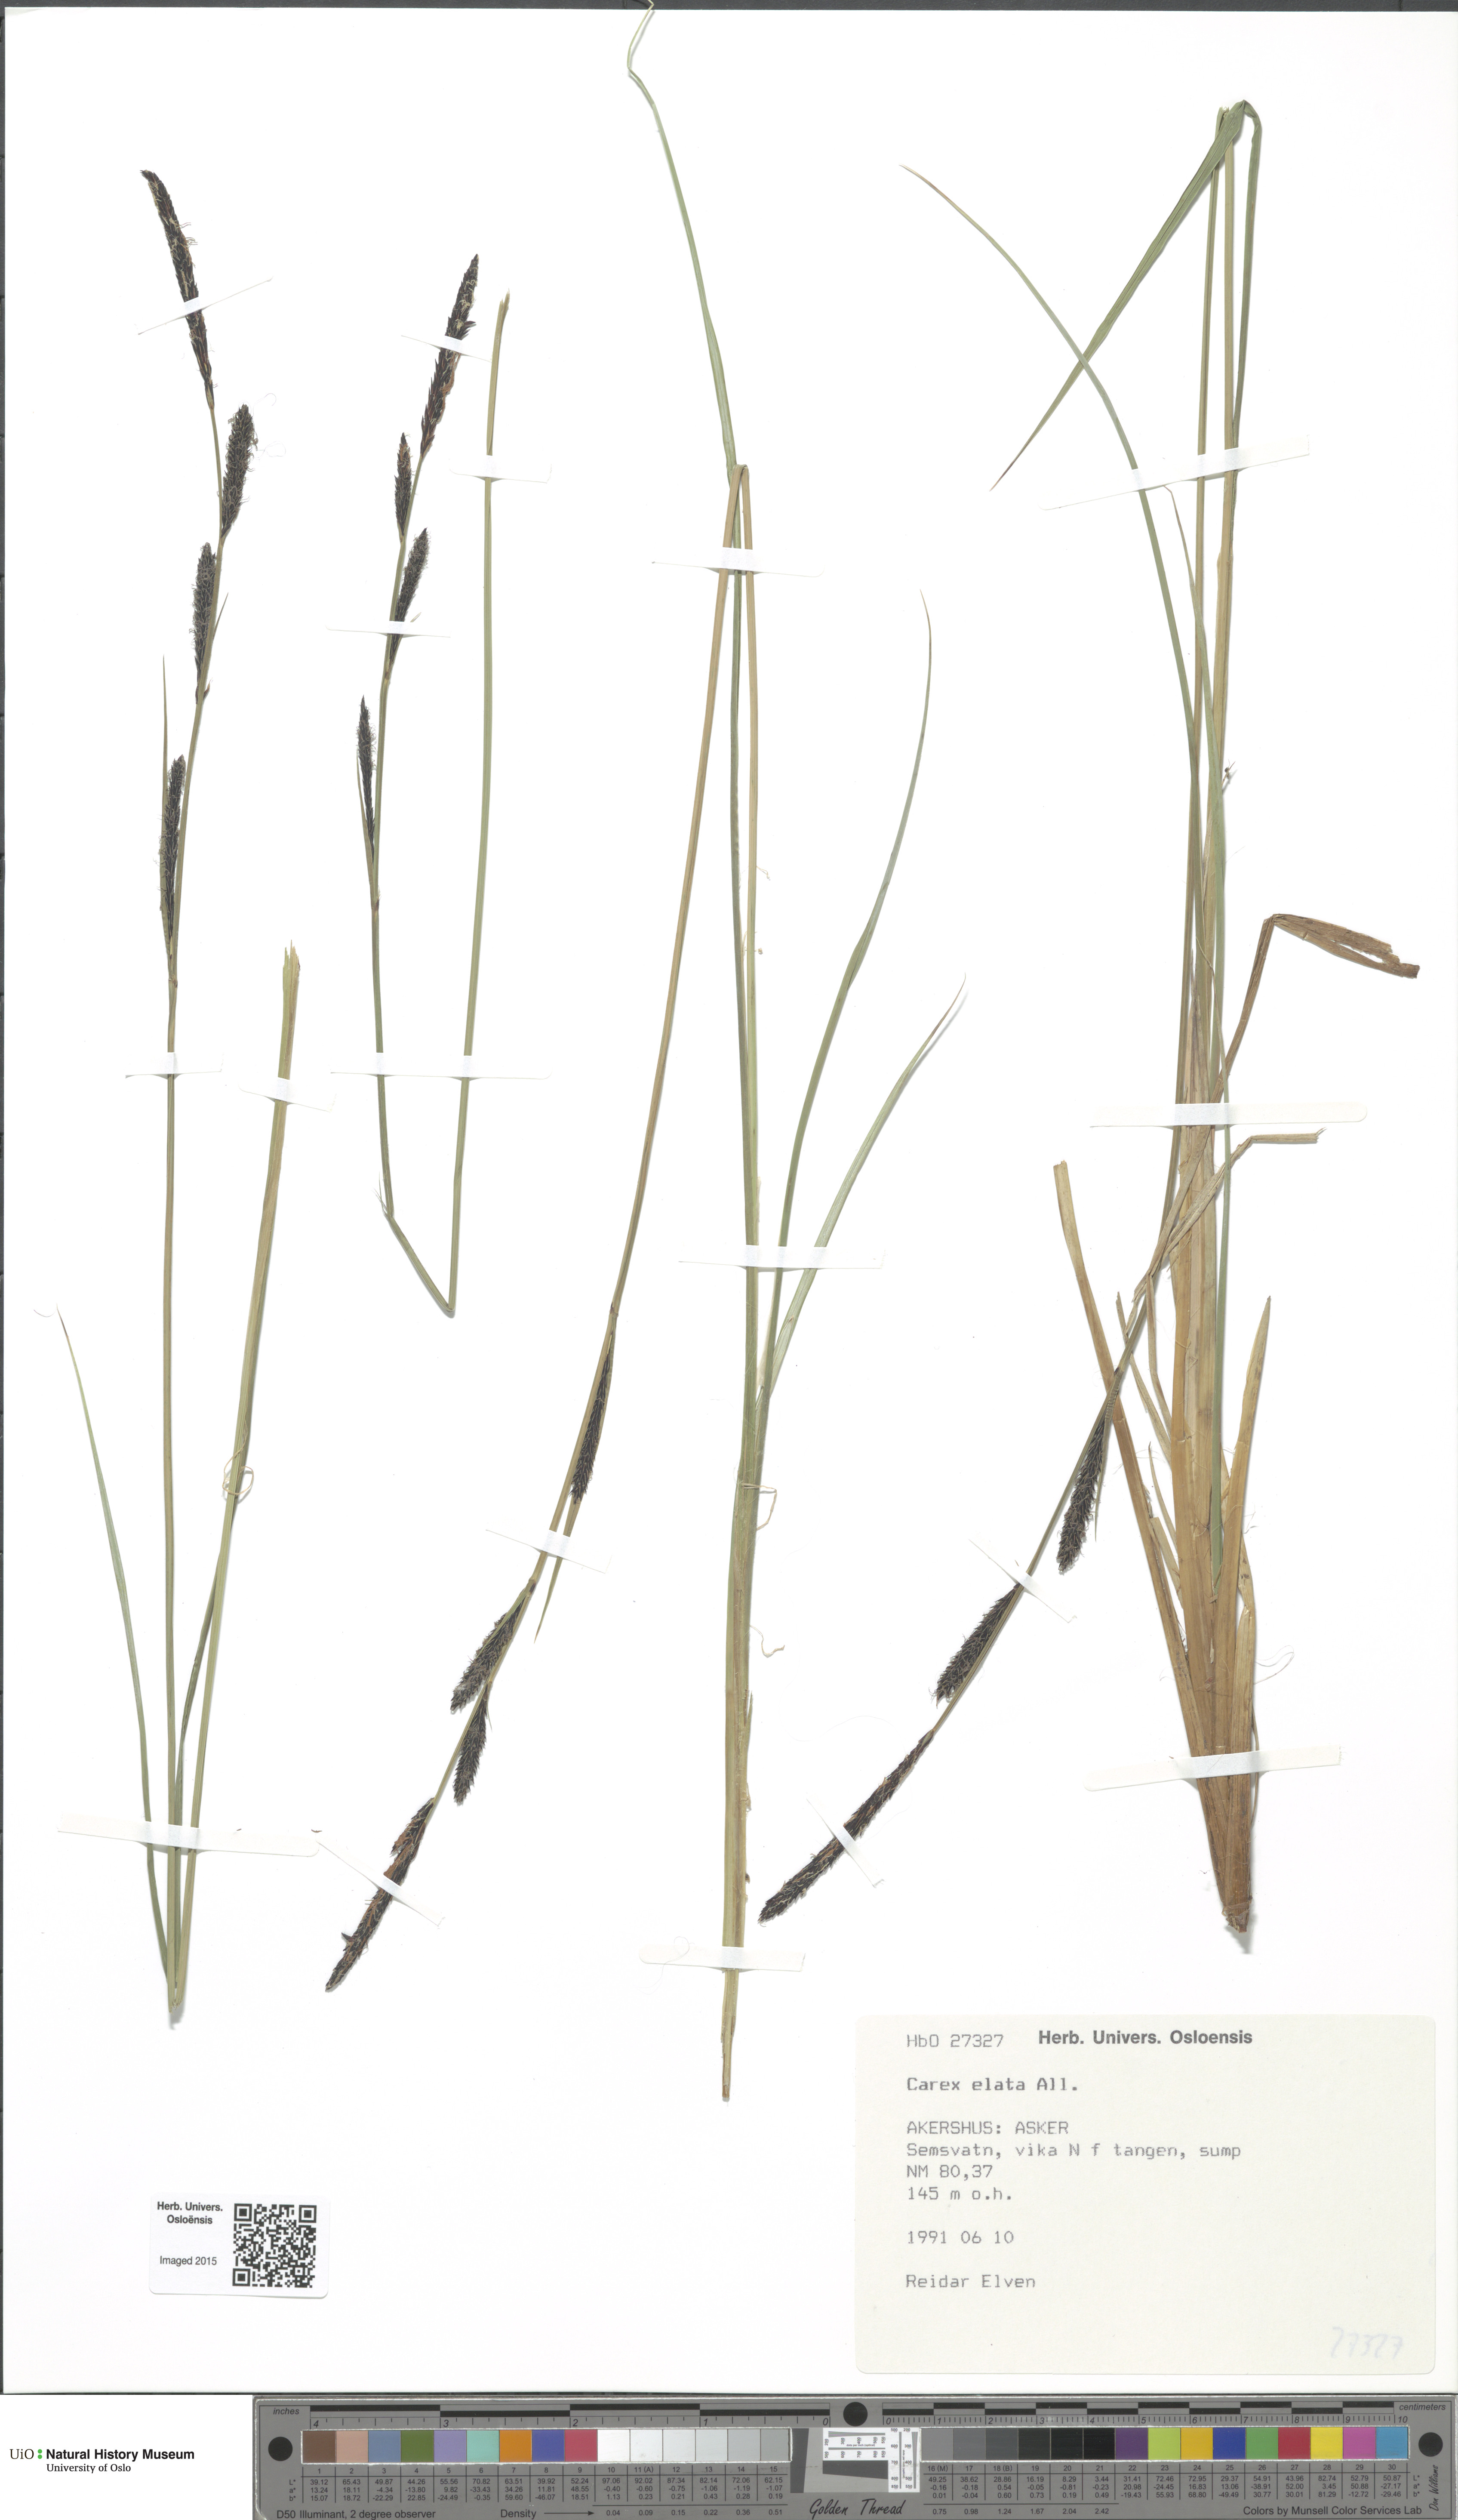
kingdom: Plantae
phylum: Tracheophyta
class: Liliopsida
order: Poales
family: Cyperaceae
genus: Carex
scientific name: Carex elata
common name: Tufted sedge
